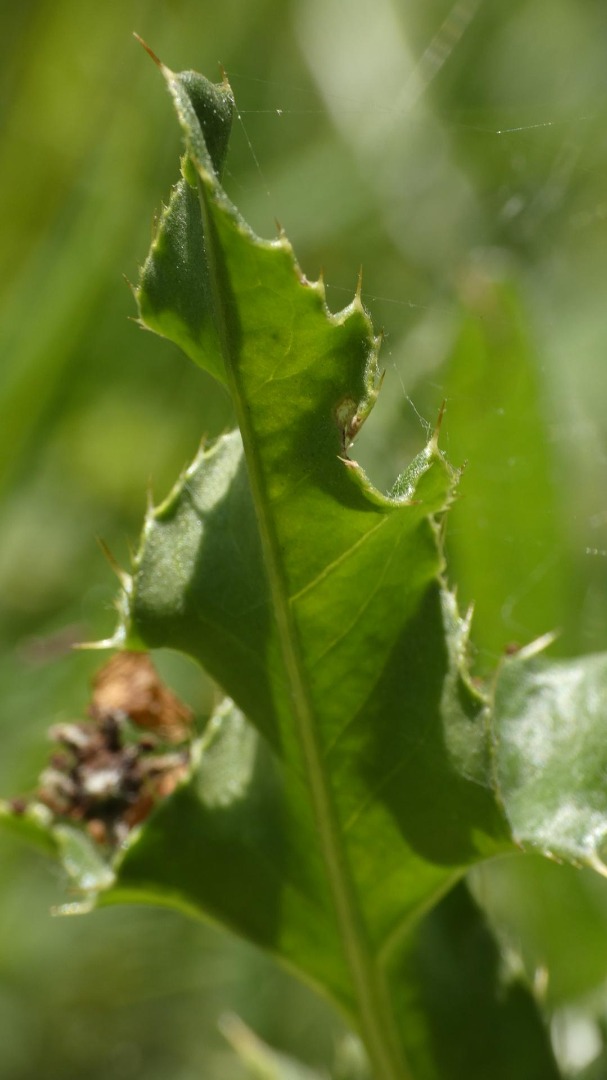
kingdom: Plantae
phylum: Tracheophyta
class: Magnoliopsida
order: Asterales
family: Asteraceae
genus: Cirsium
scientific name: Cirsium arvense
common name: Ager-tidsel
